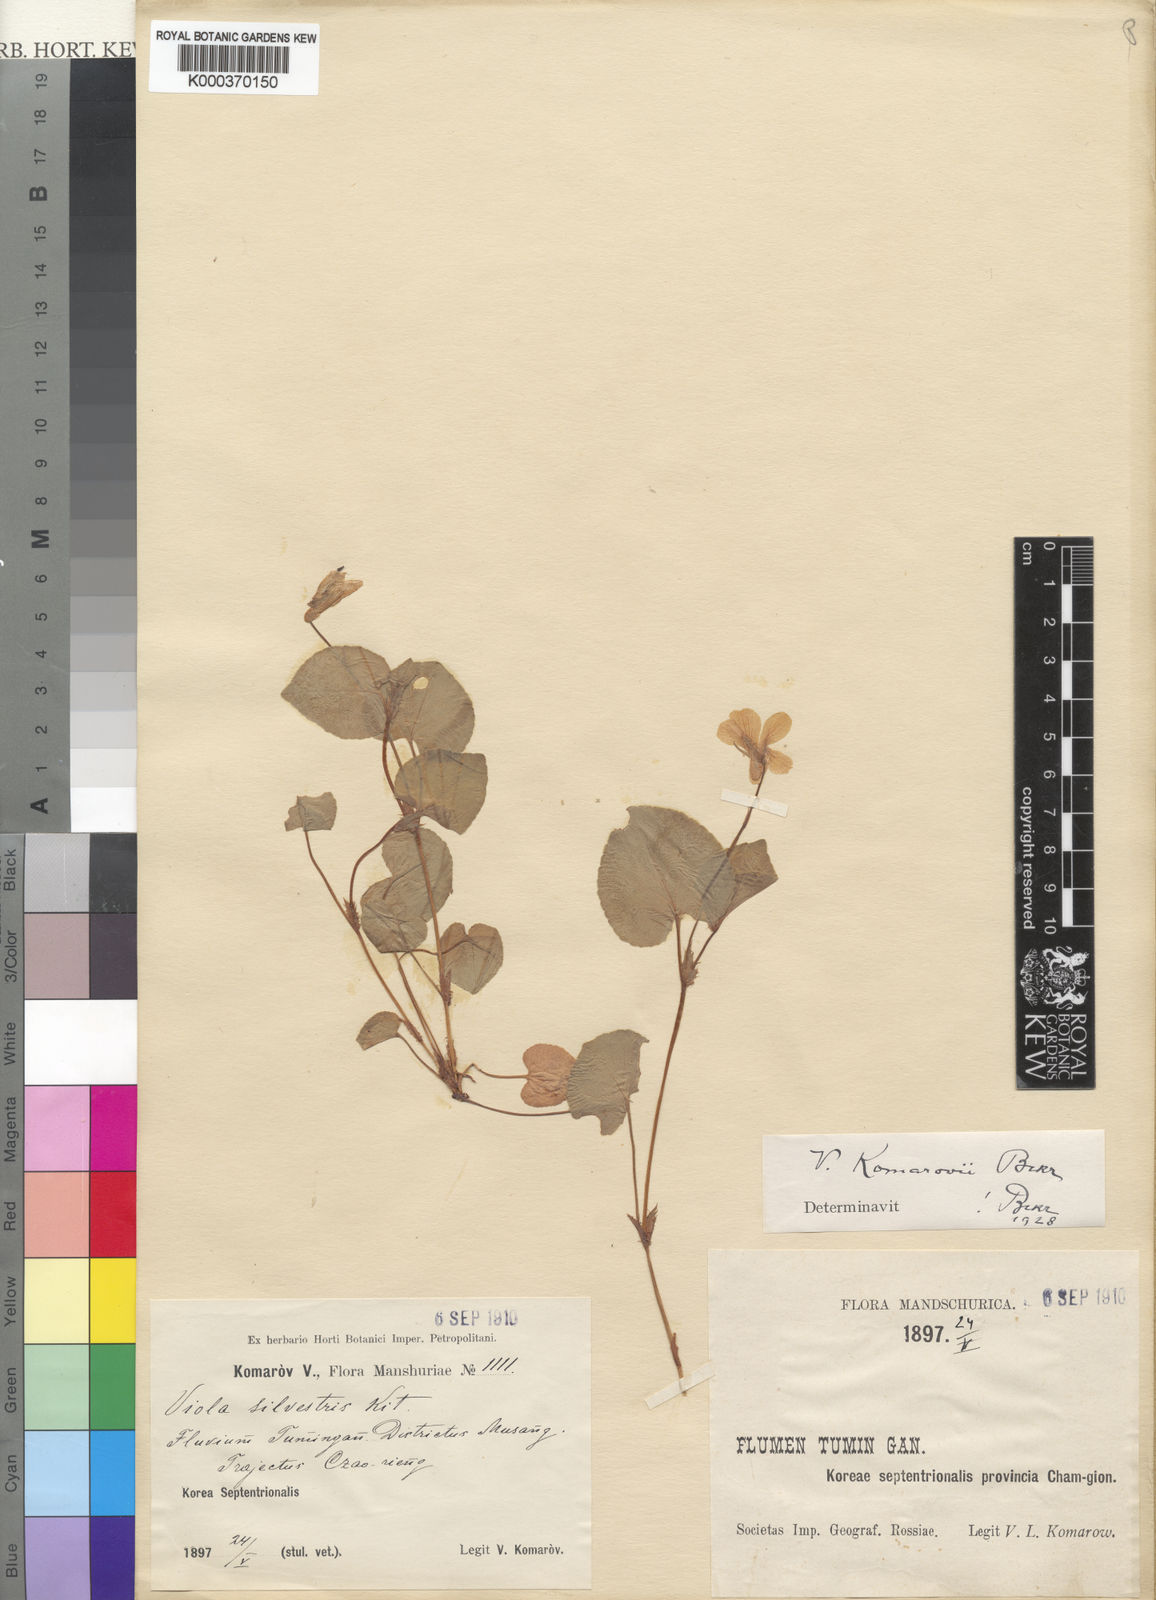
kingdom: Plantae
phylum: Tracheophyta
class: Magnoliopsida
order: Malpighiales
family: Violaceae
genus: Viola
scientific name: Viola sacchalinensis
